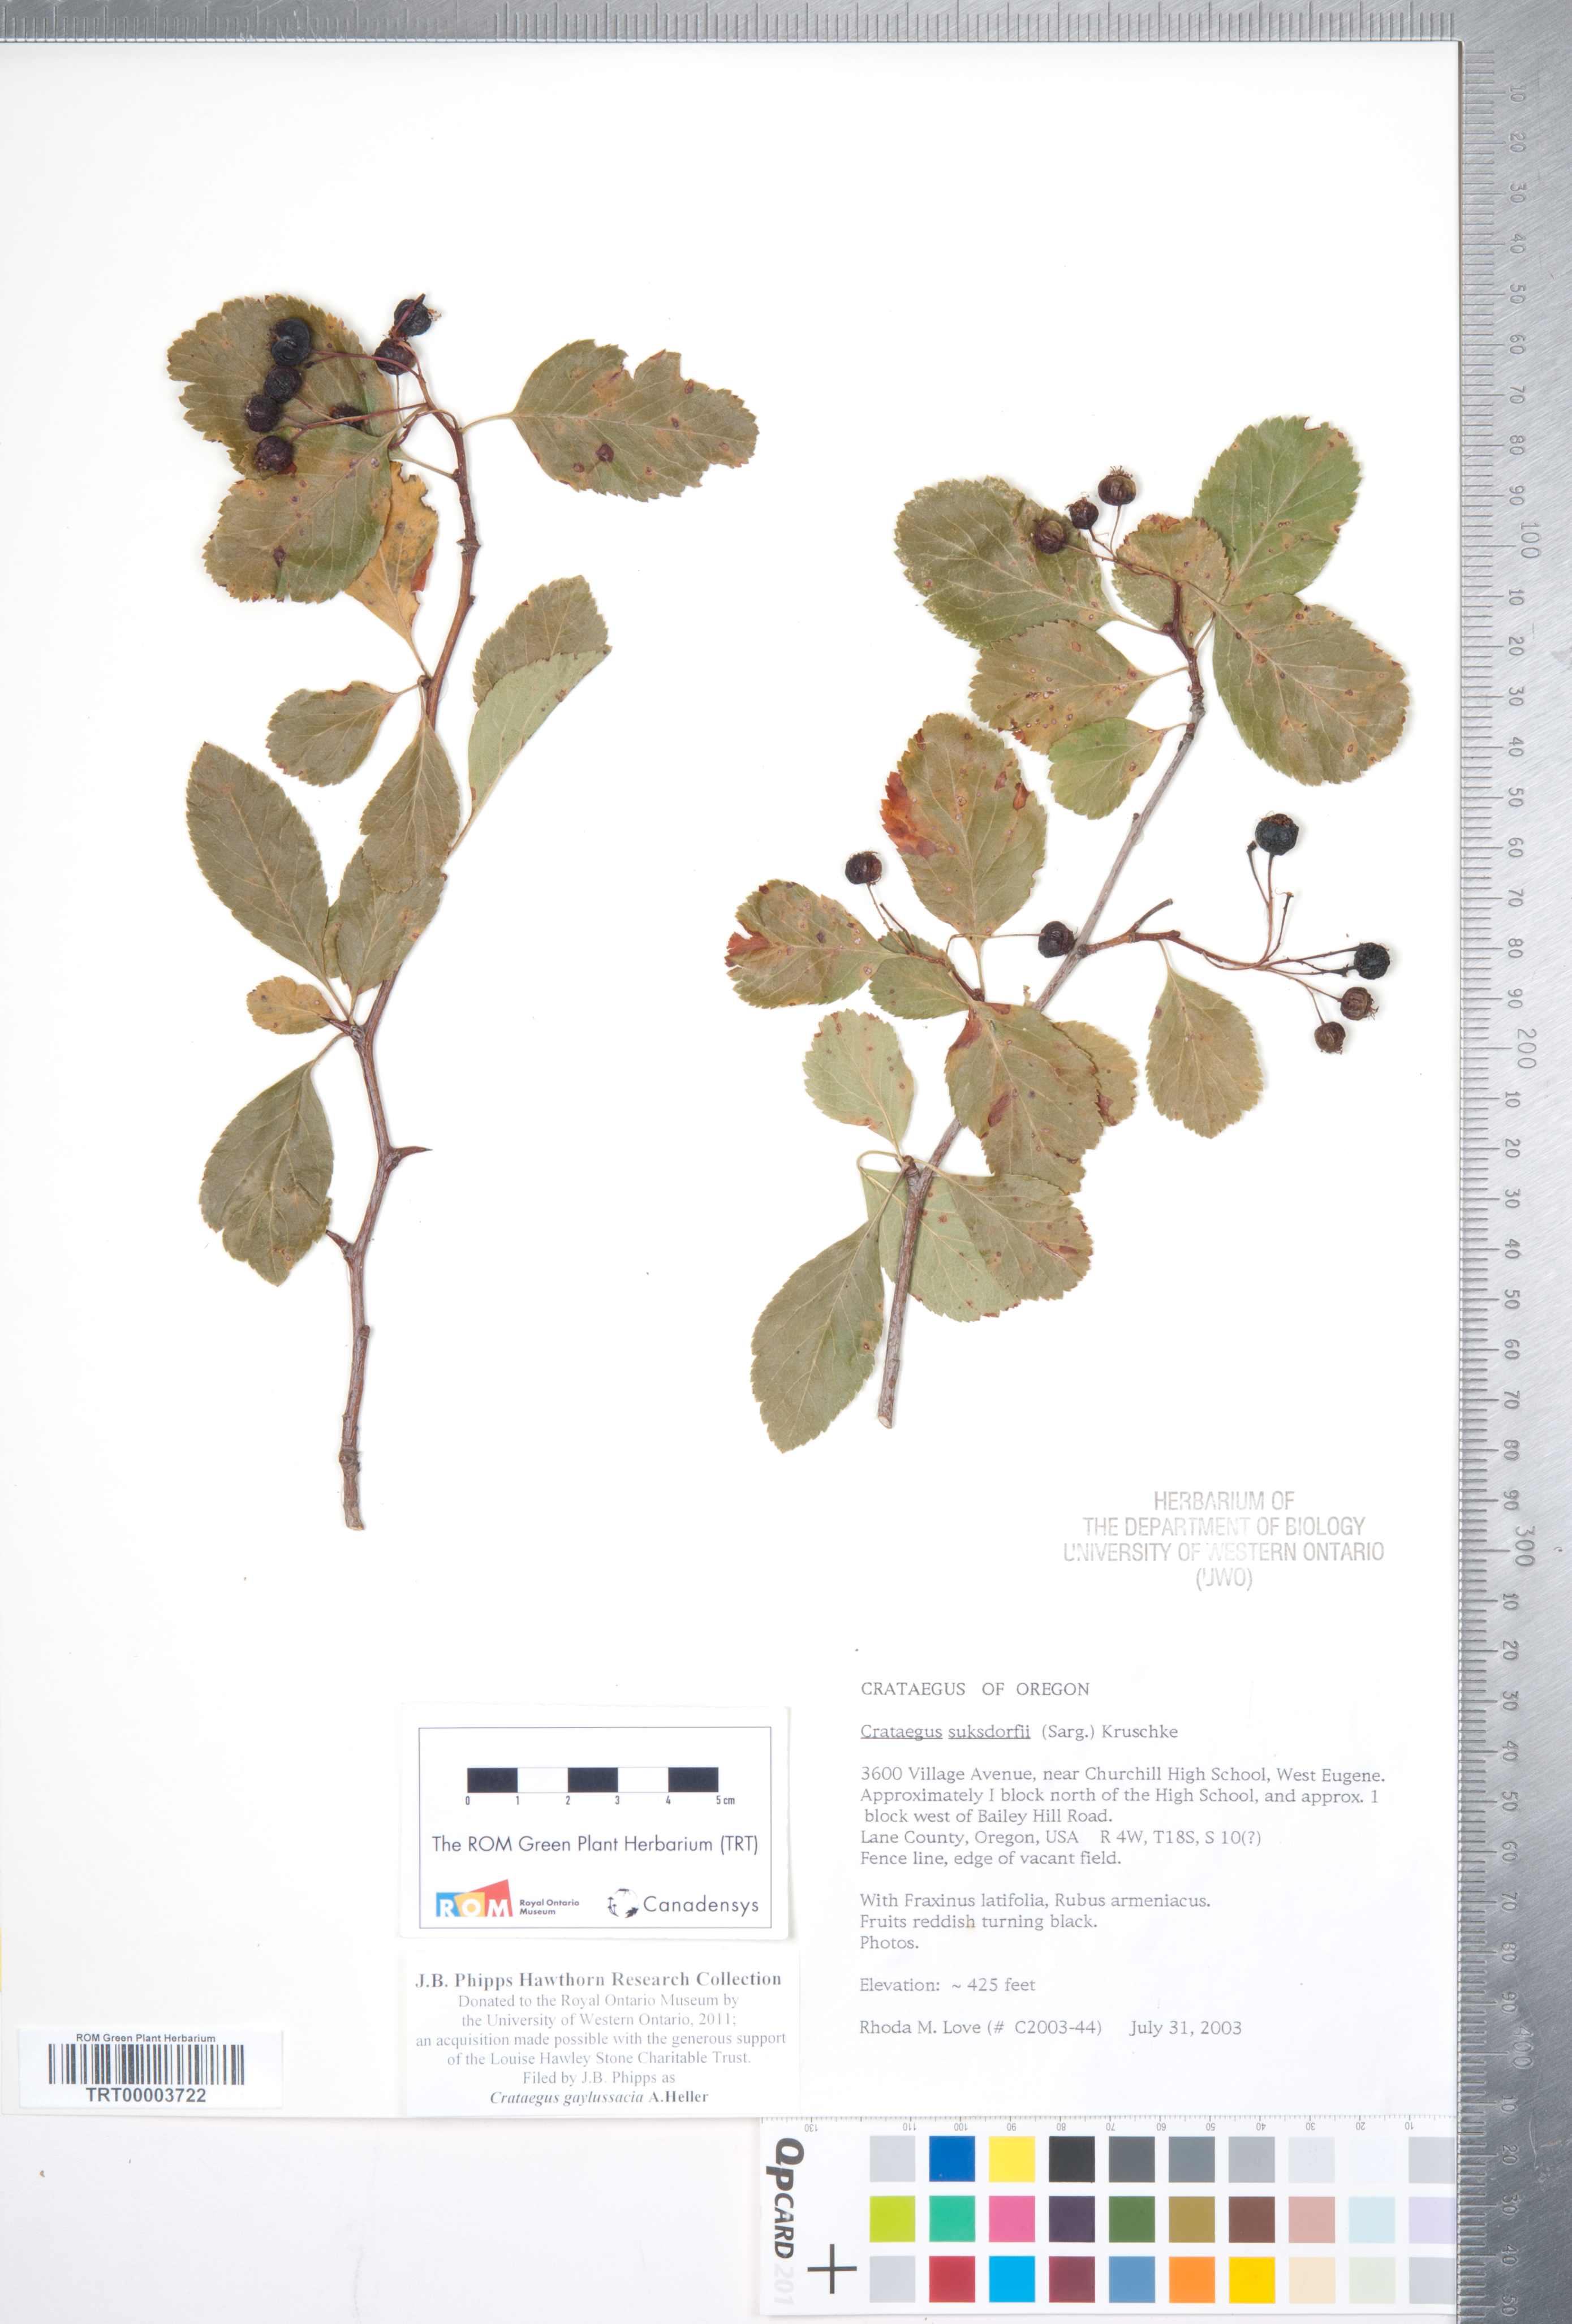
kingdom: Plantae
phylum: Tracheophyta
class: Magnoliopsida
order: Rosales
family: Rosaceae
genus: Crataegus
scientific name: Crataegus gaylussacia
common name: Huckleberry hawthorn
